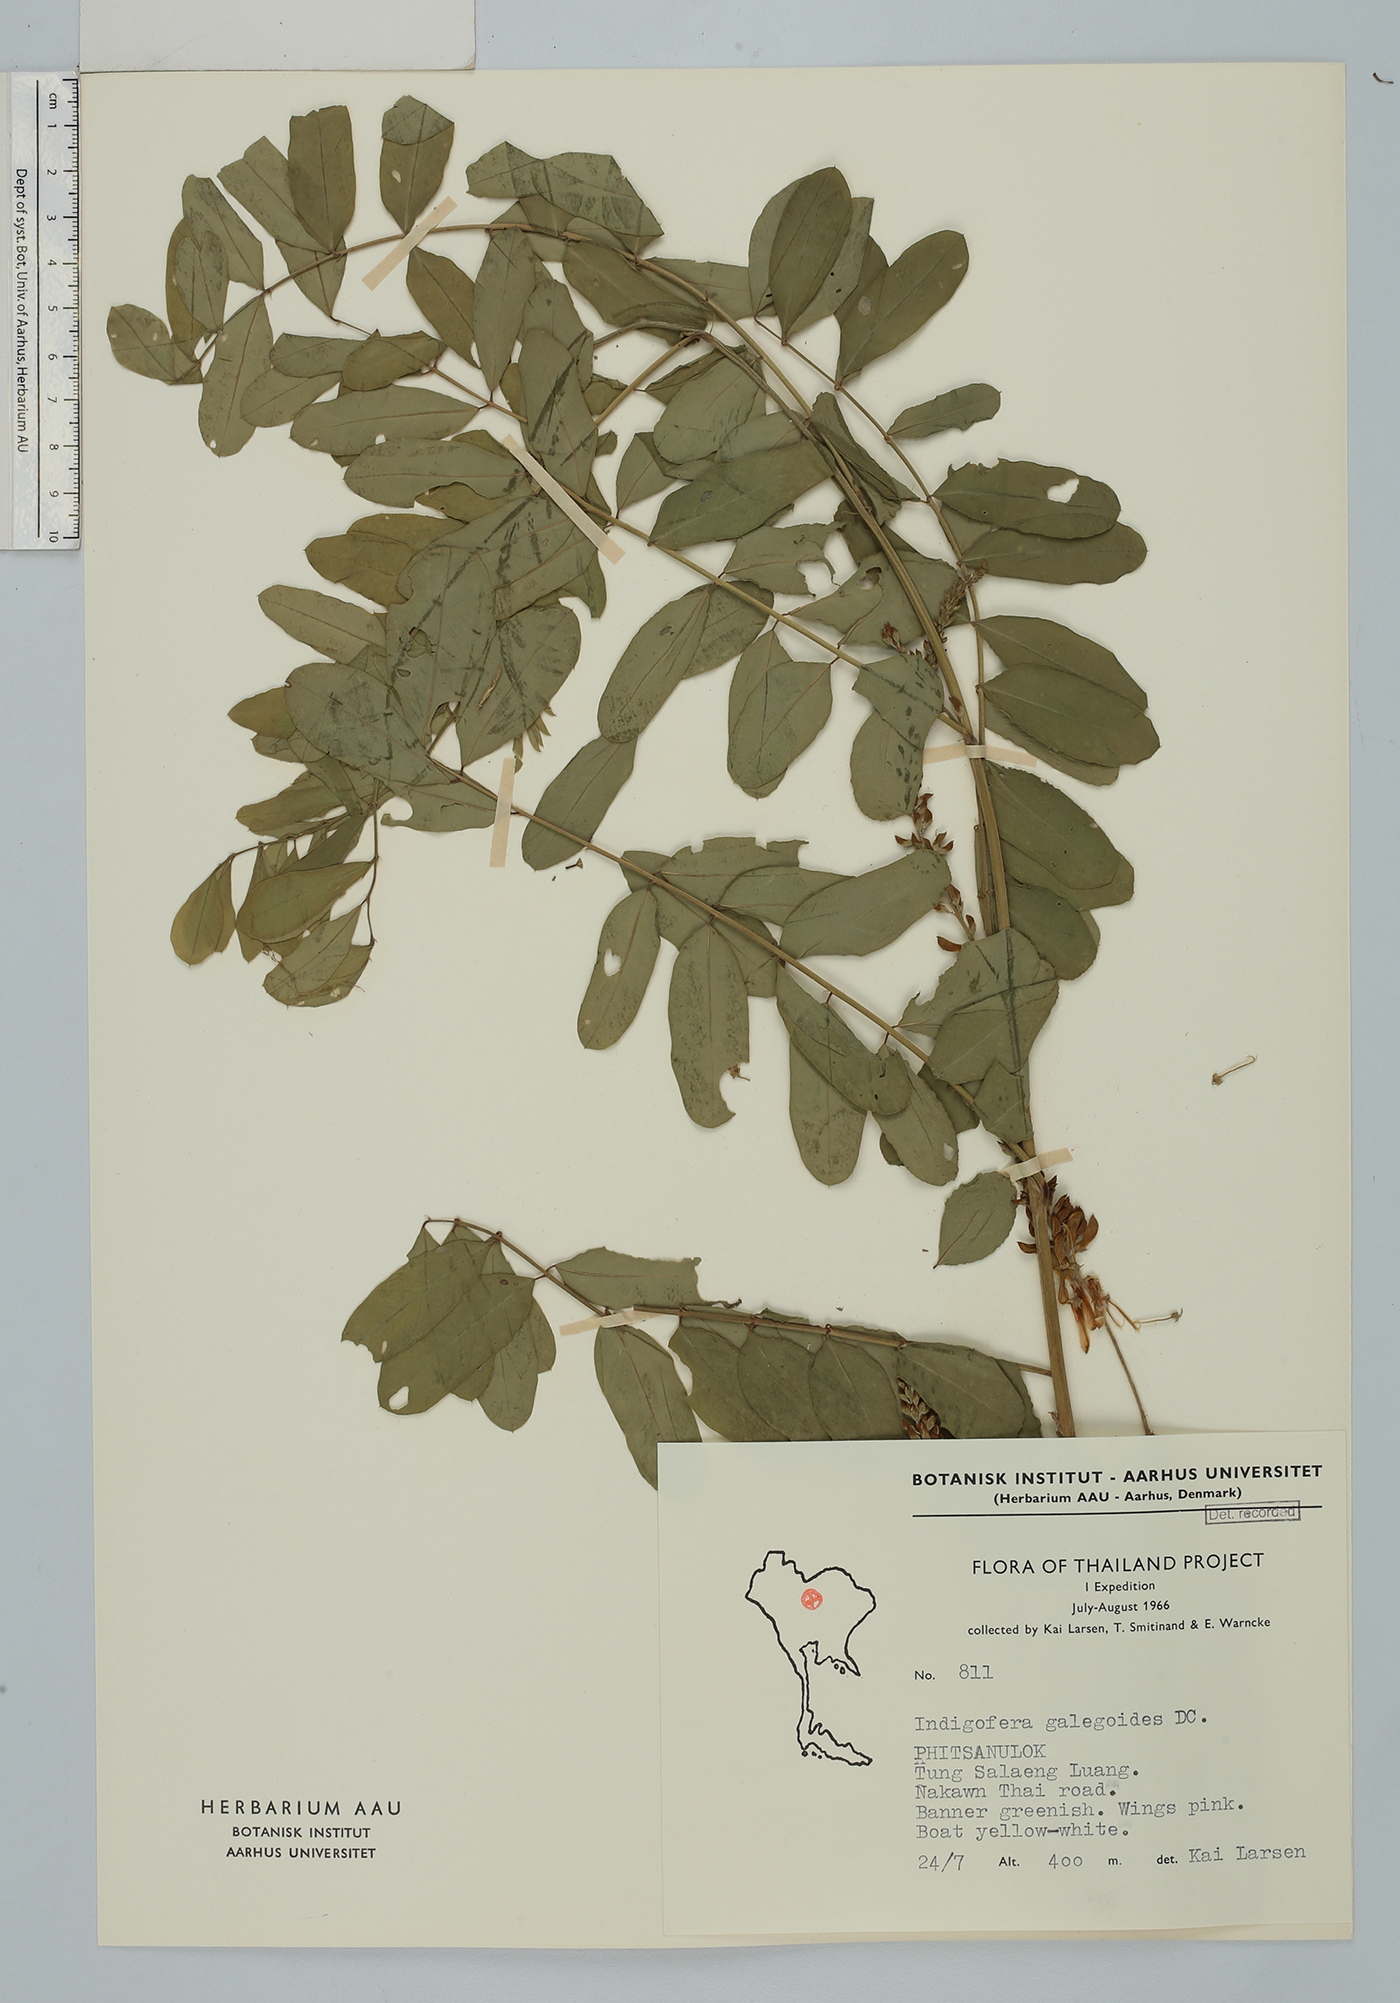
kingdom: Plantae
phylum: Tracheophyta
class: Magnoliopsida
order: Fabales
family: Fabaceae
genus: Indigofera
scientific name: Indigofera galegoides
